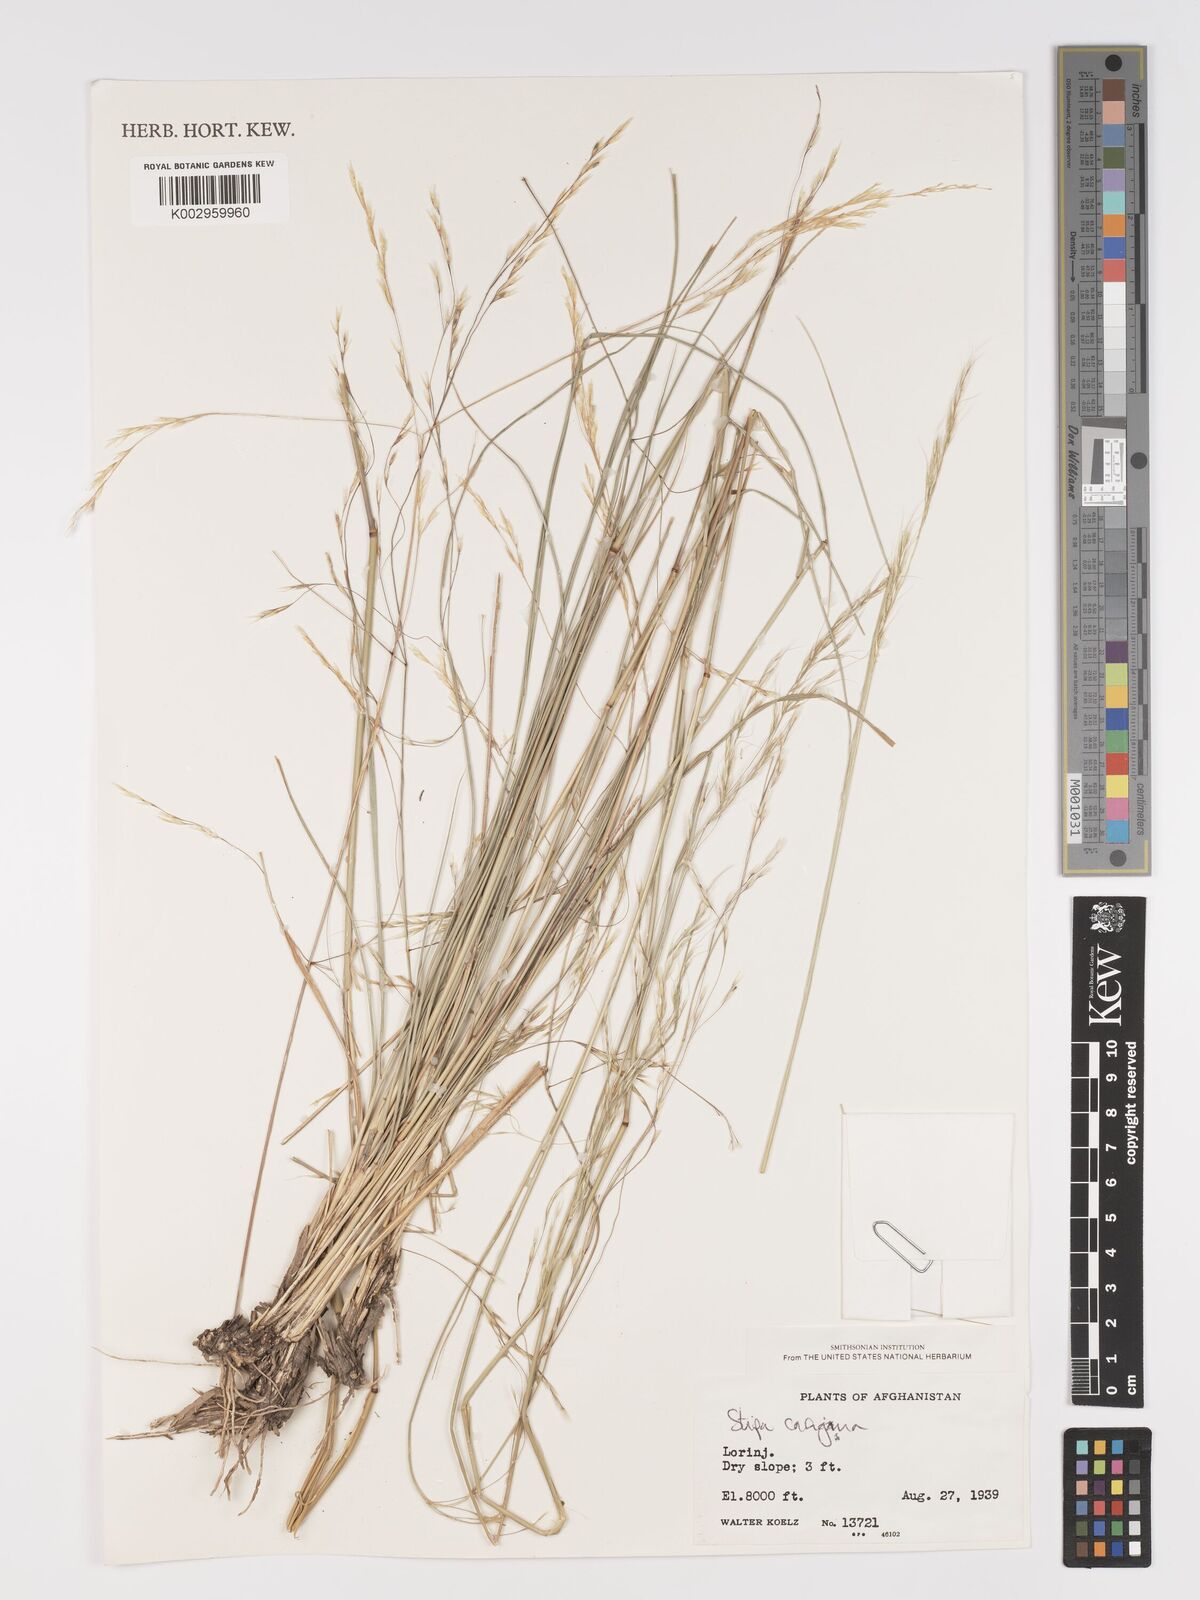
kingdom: Plantae
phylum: Tracheophyta
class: Liliopsida
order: Poales
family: Poaceae
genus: Stipa
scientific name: Stipa conferta
